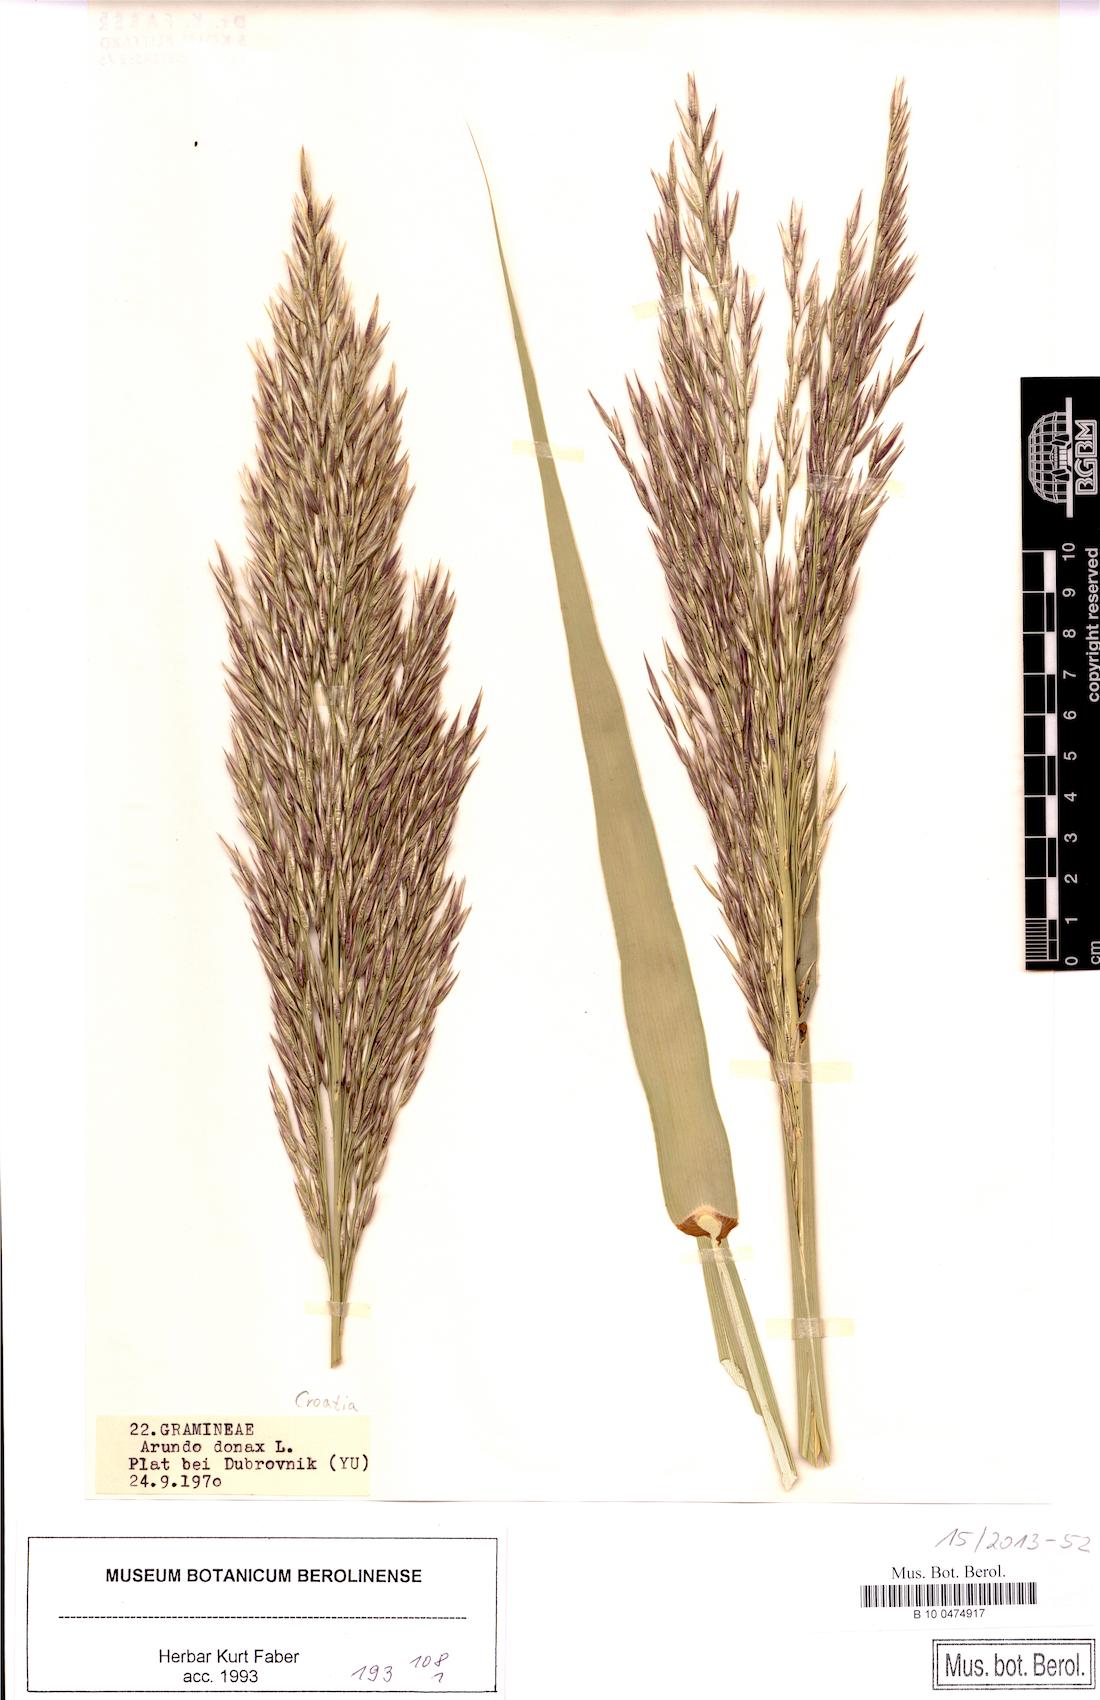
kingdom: Plantae
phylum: Tracheophyta
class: Liliopsida
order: Poales
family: Poaceae
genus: Arundo
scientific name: Arundo donax
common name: Giant reed
